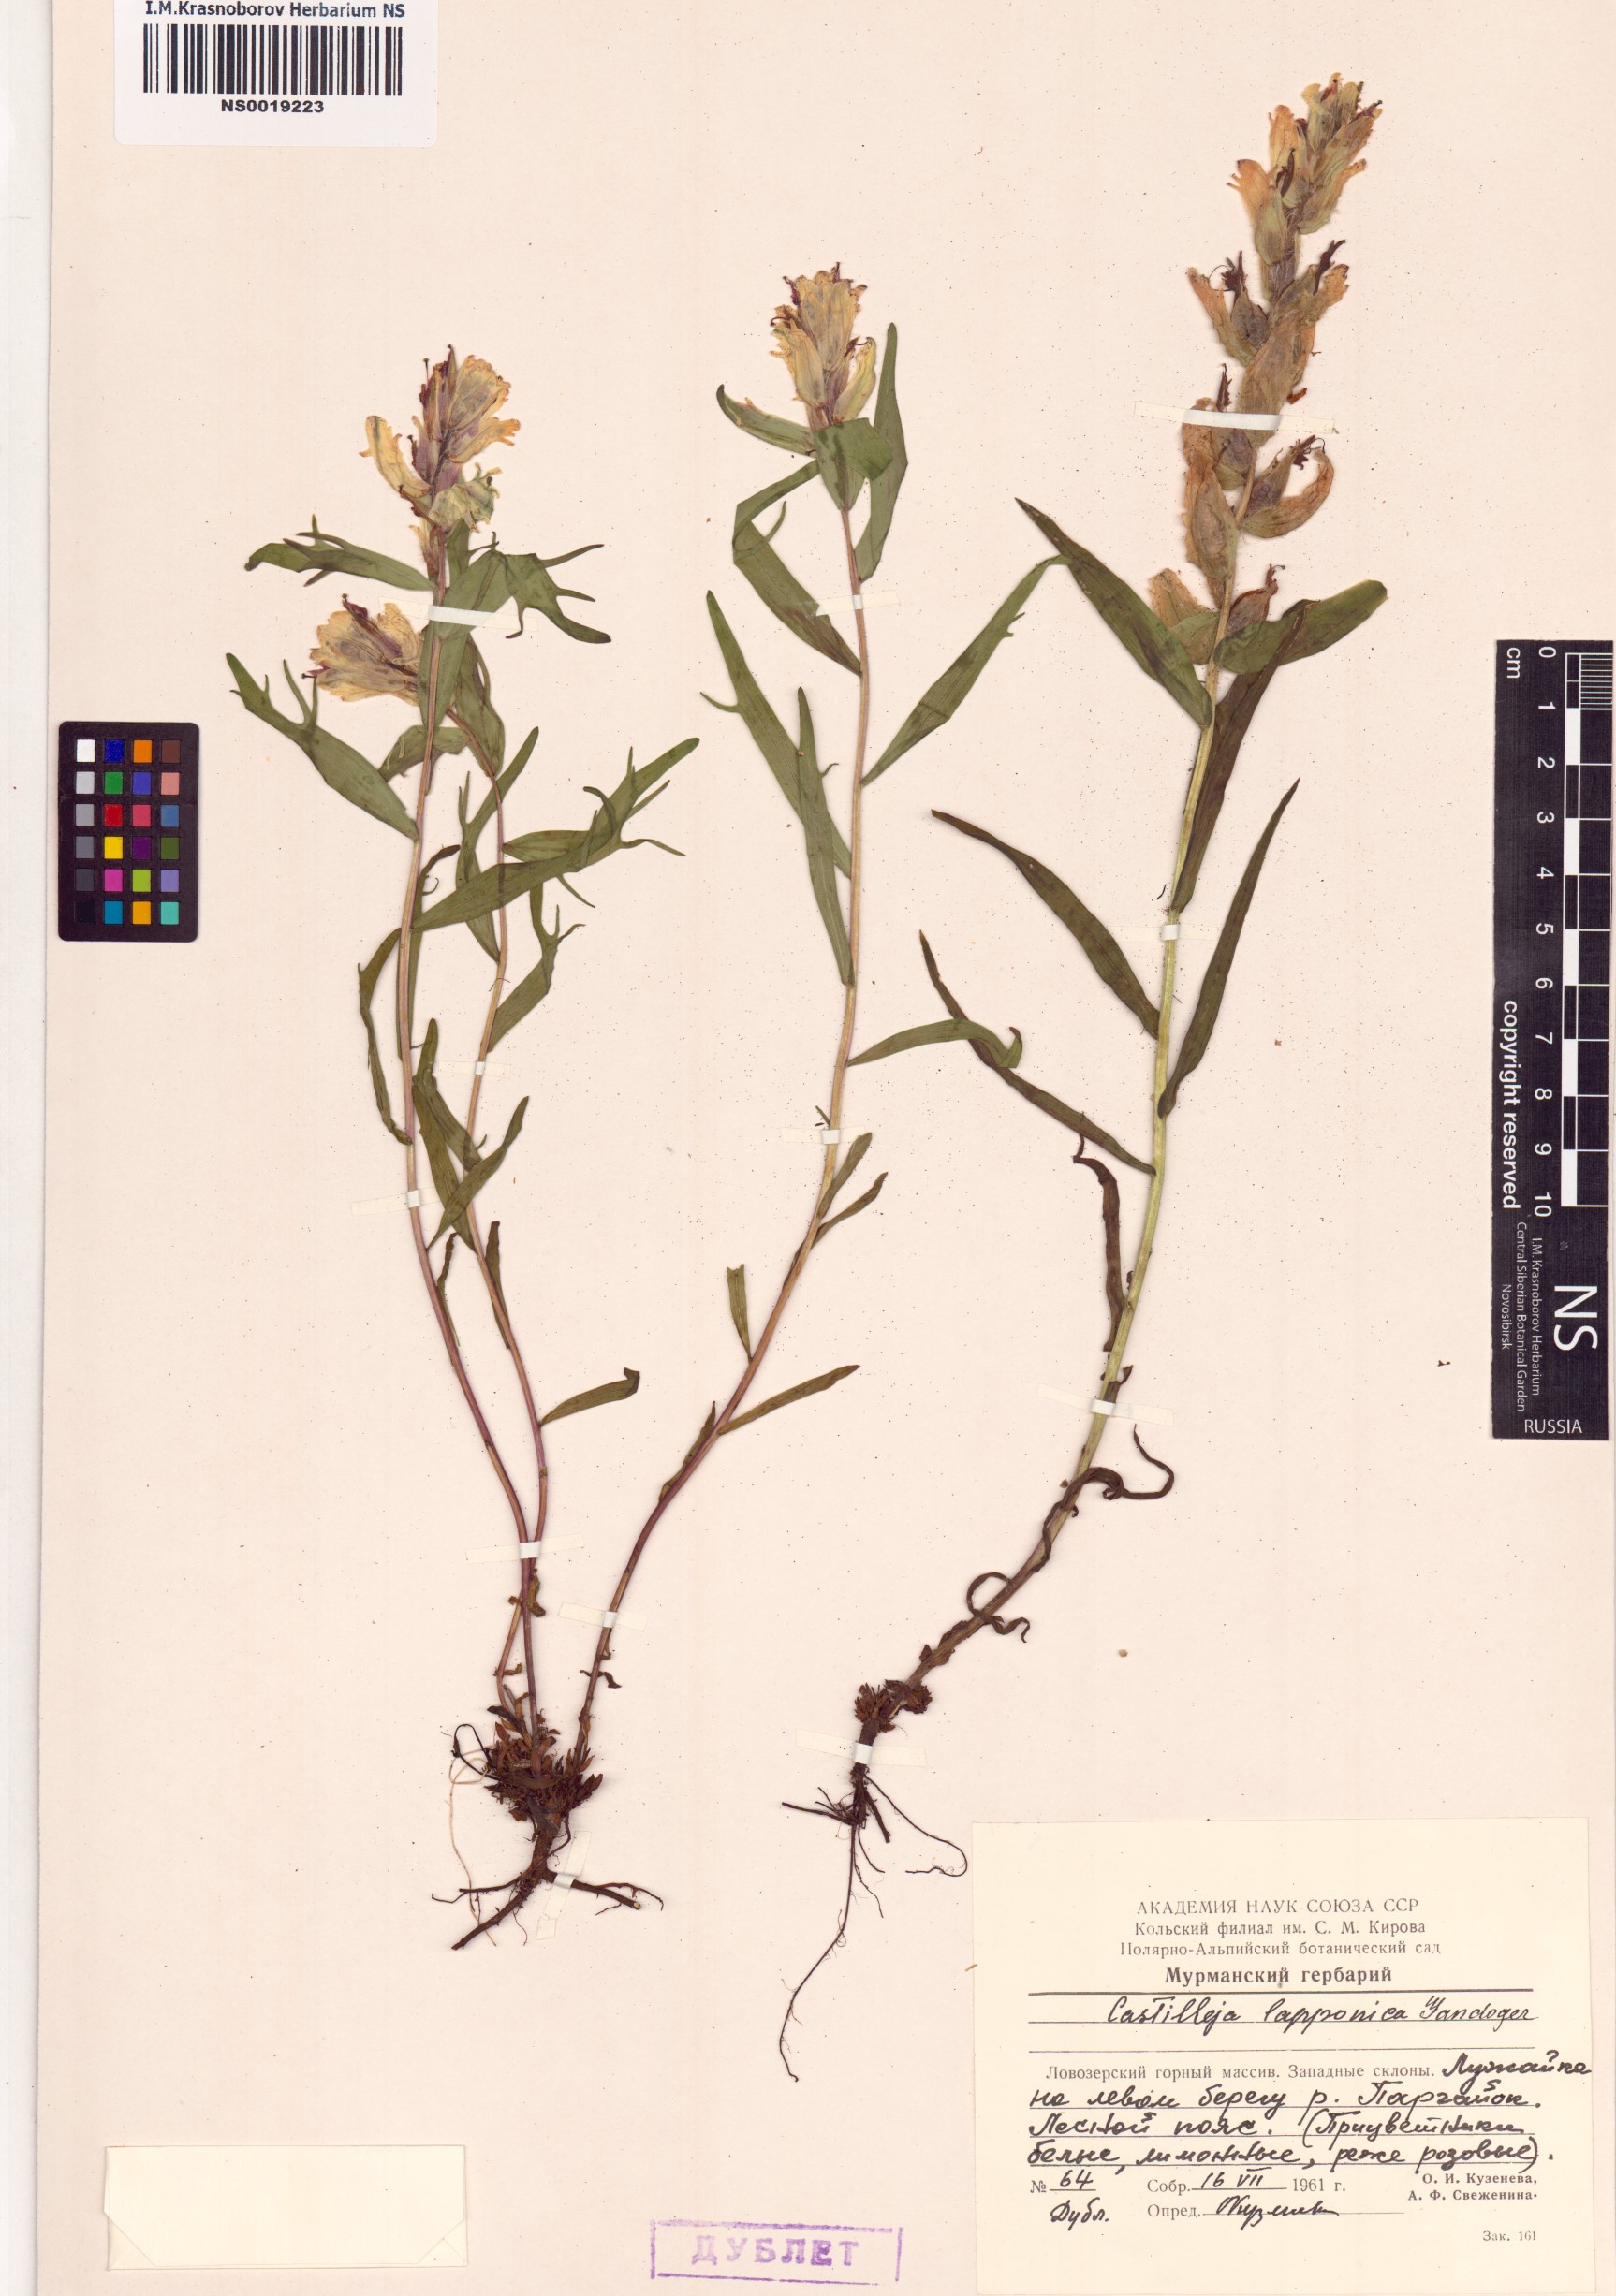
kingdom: Plantae
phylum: Tracheophyta
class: Magnoliopsida
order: Lamiales
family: Orobanchaceae
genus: Castilleja
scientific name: Castilleja lapponica
